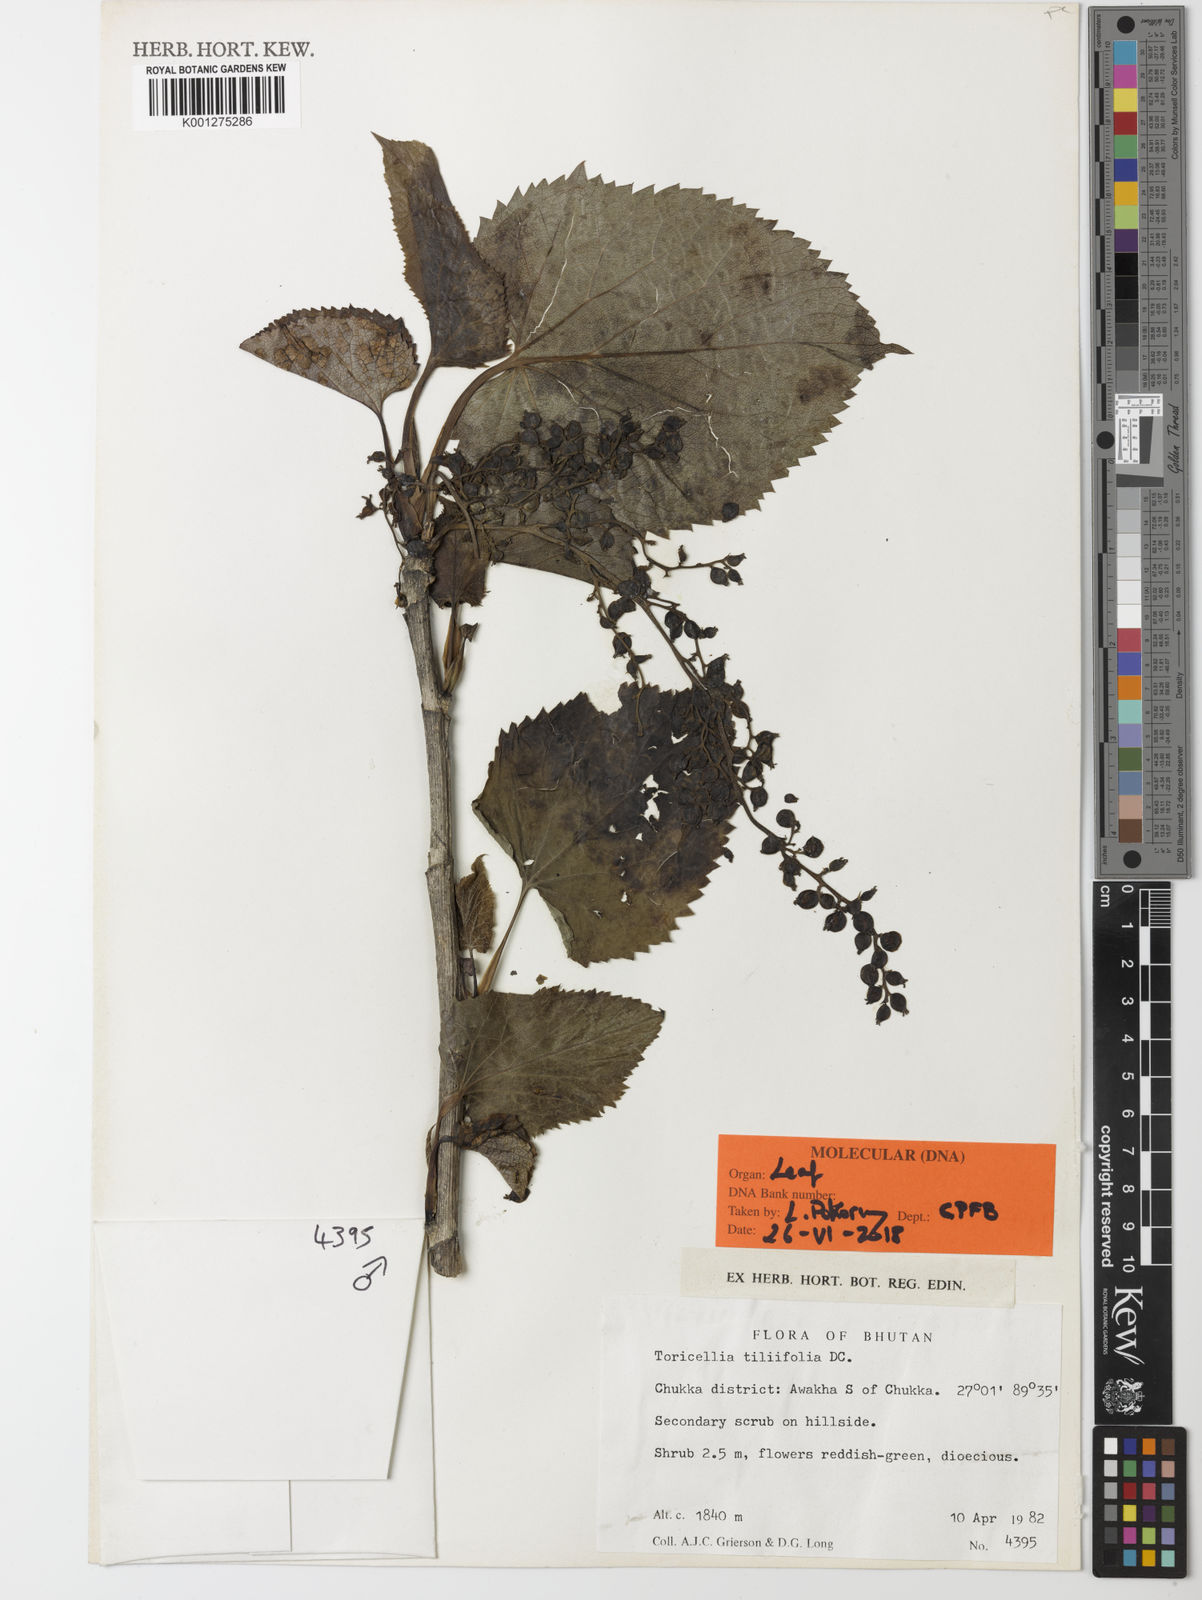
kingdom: Plantae
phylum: Tracheophyta
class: Magnoliopsida
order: Apiales
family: Torricelliaceae
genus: Torricellia
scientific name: Torricellia tiliifolia
